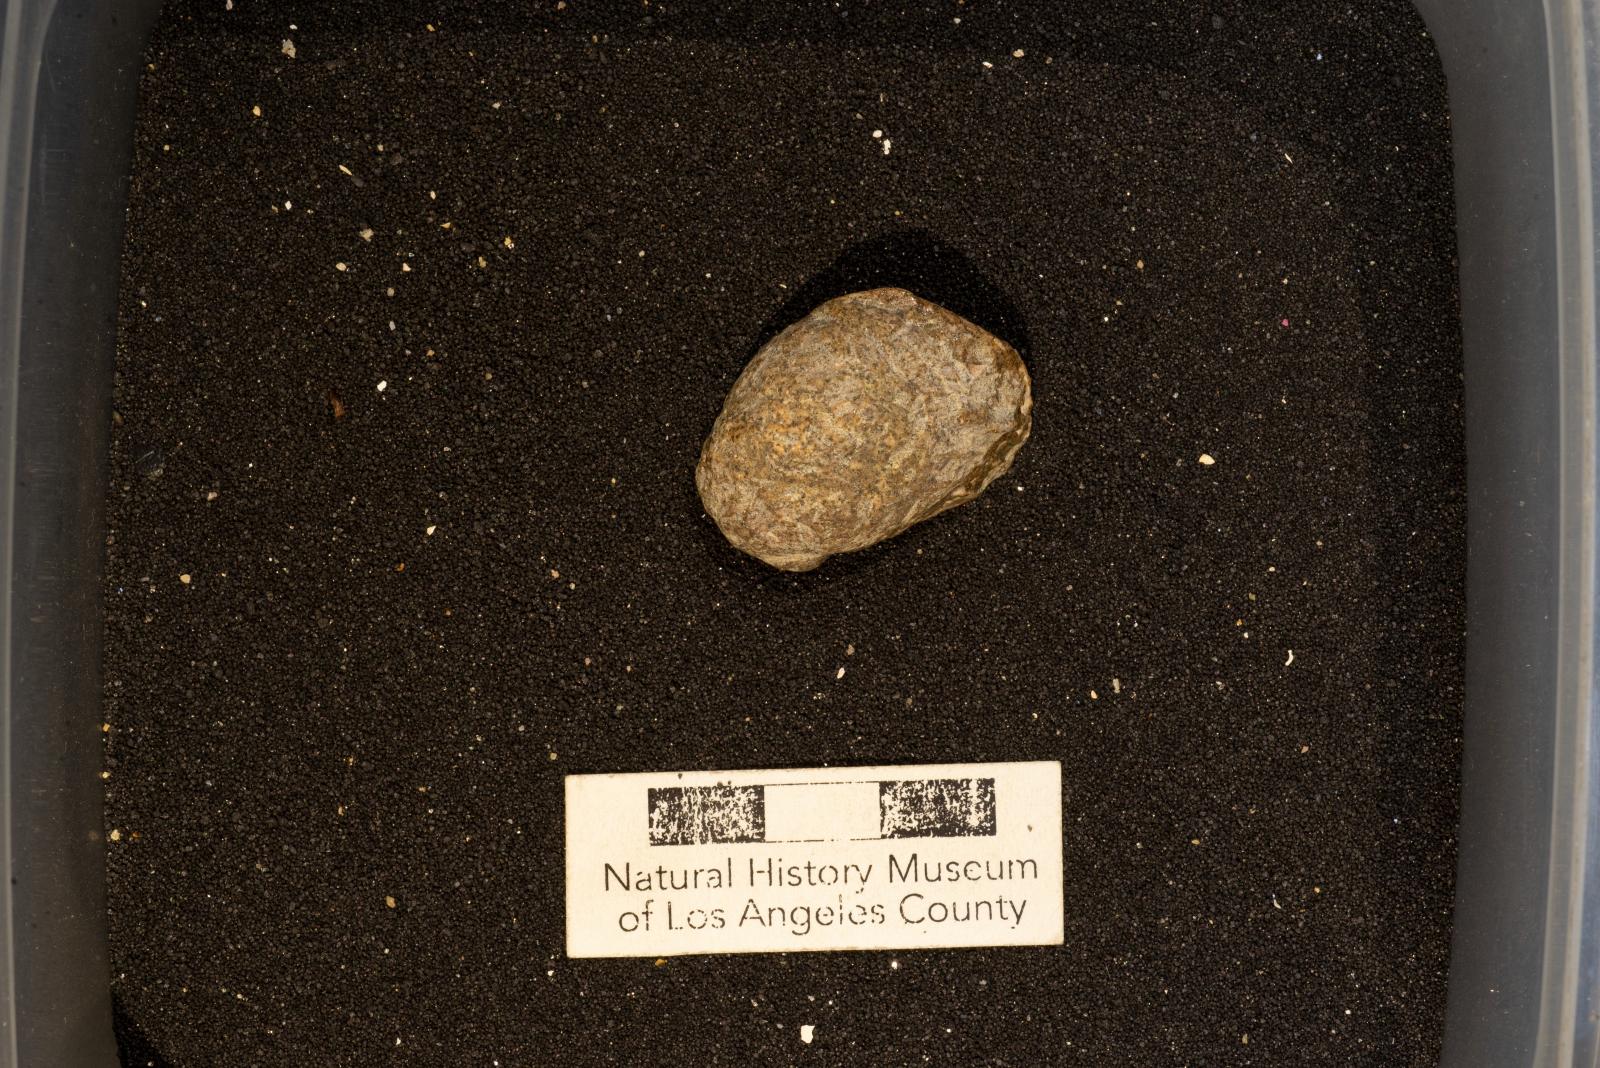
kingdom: Animalia
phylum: Mollusca
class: Gastropoda
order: Littorinimorpha
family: Calyptraeidae
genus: Lysis
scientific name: Lysis duplicosta
